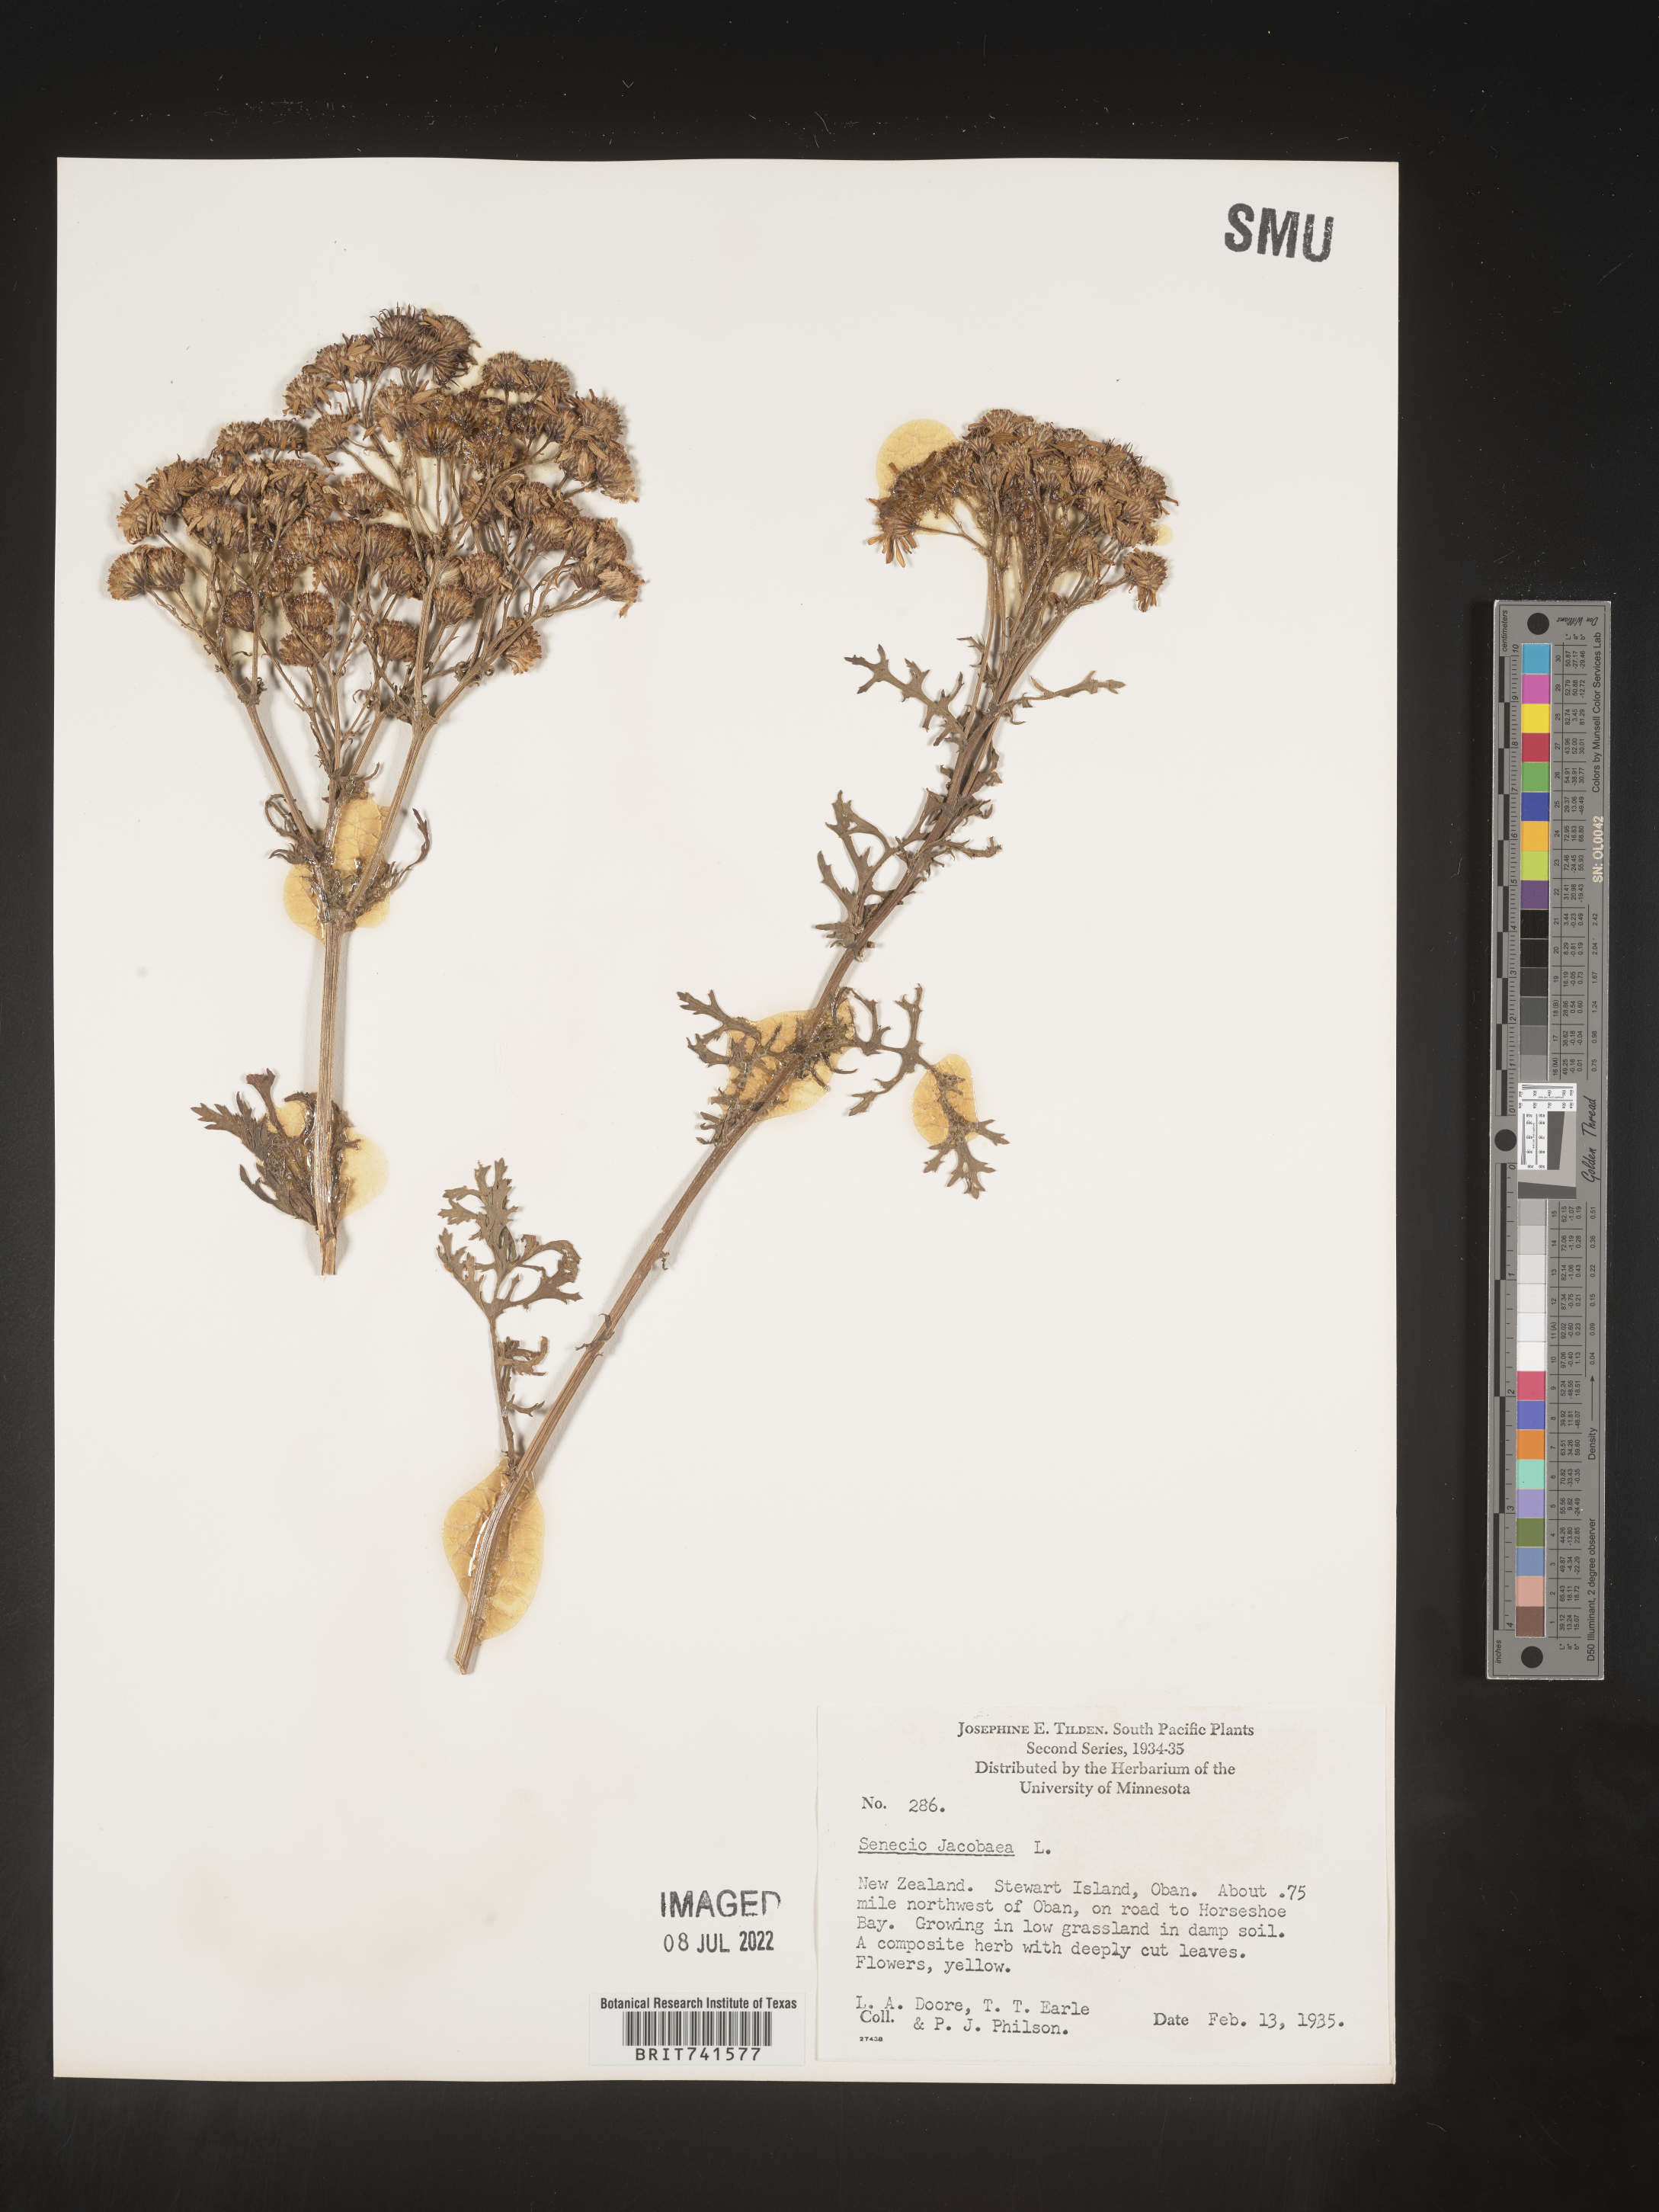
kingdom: Plantae
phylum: Tracheophyta
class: Magnoliopsida
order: Asterales
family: Asteraceae
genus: Senecio
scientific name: Senecio
